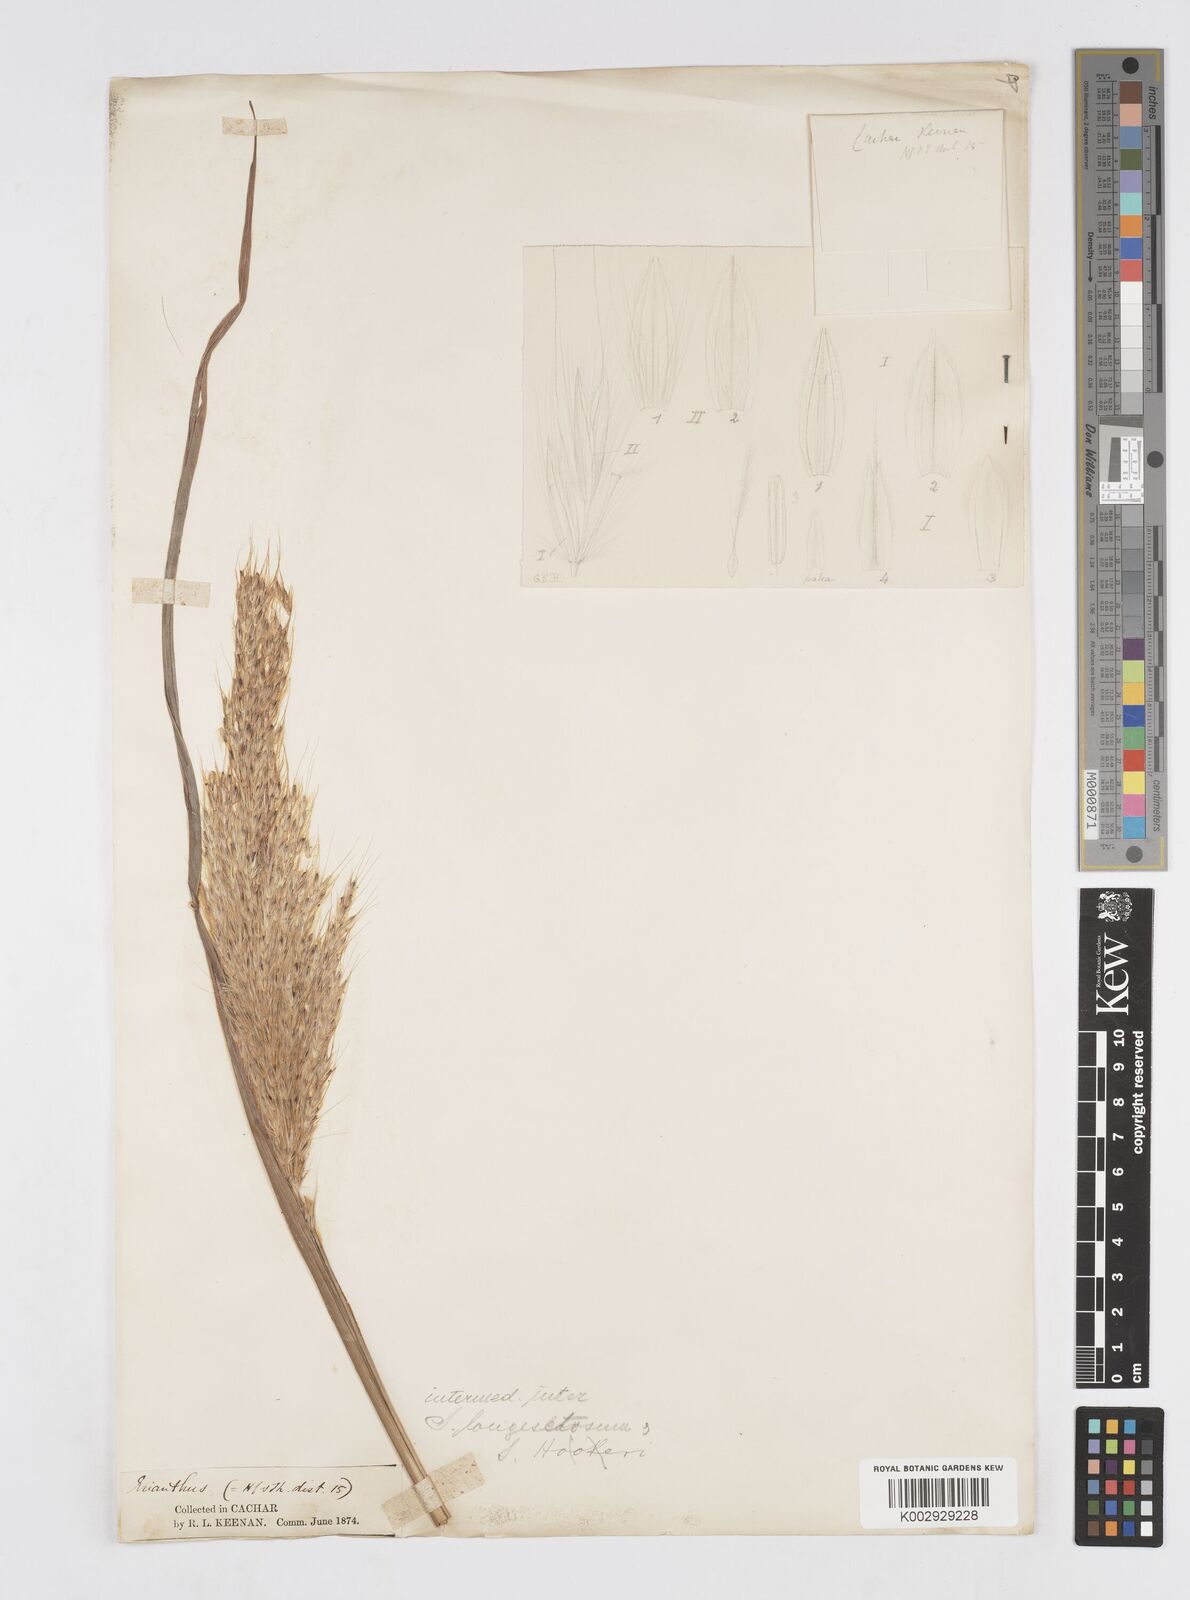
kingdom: Plantae
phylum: Tracheophyta
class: Liliopsida
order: Poales
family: Poaceae
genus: Melinis
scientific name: Melinis longiseta
